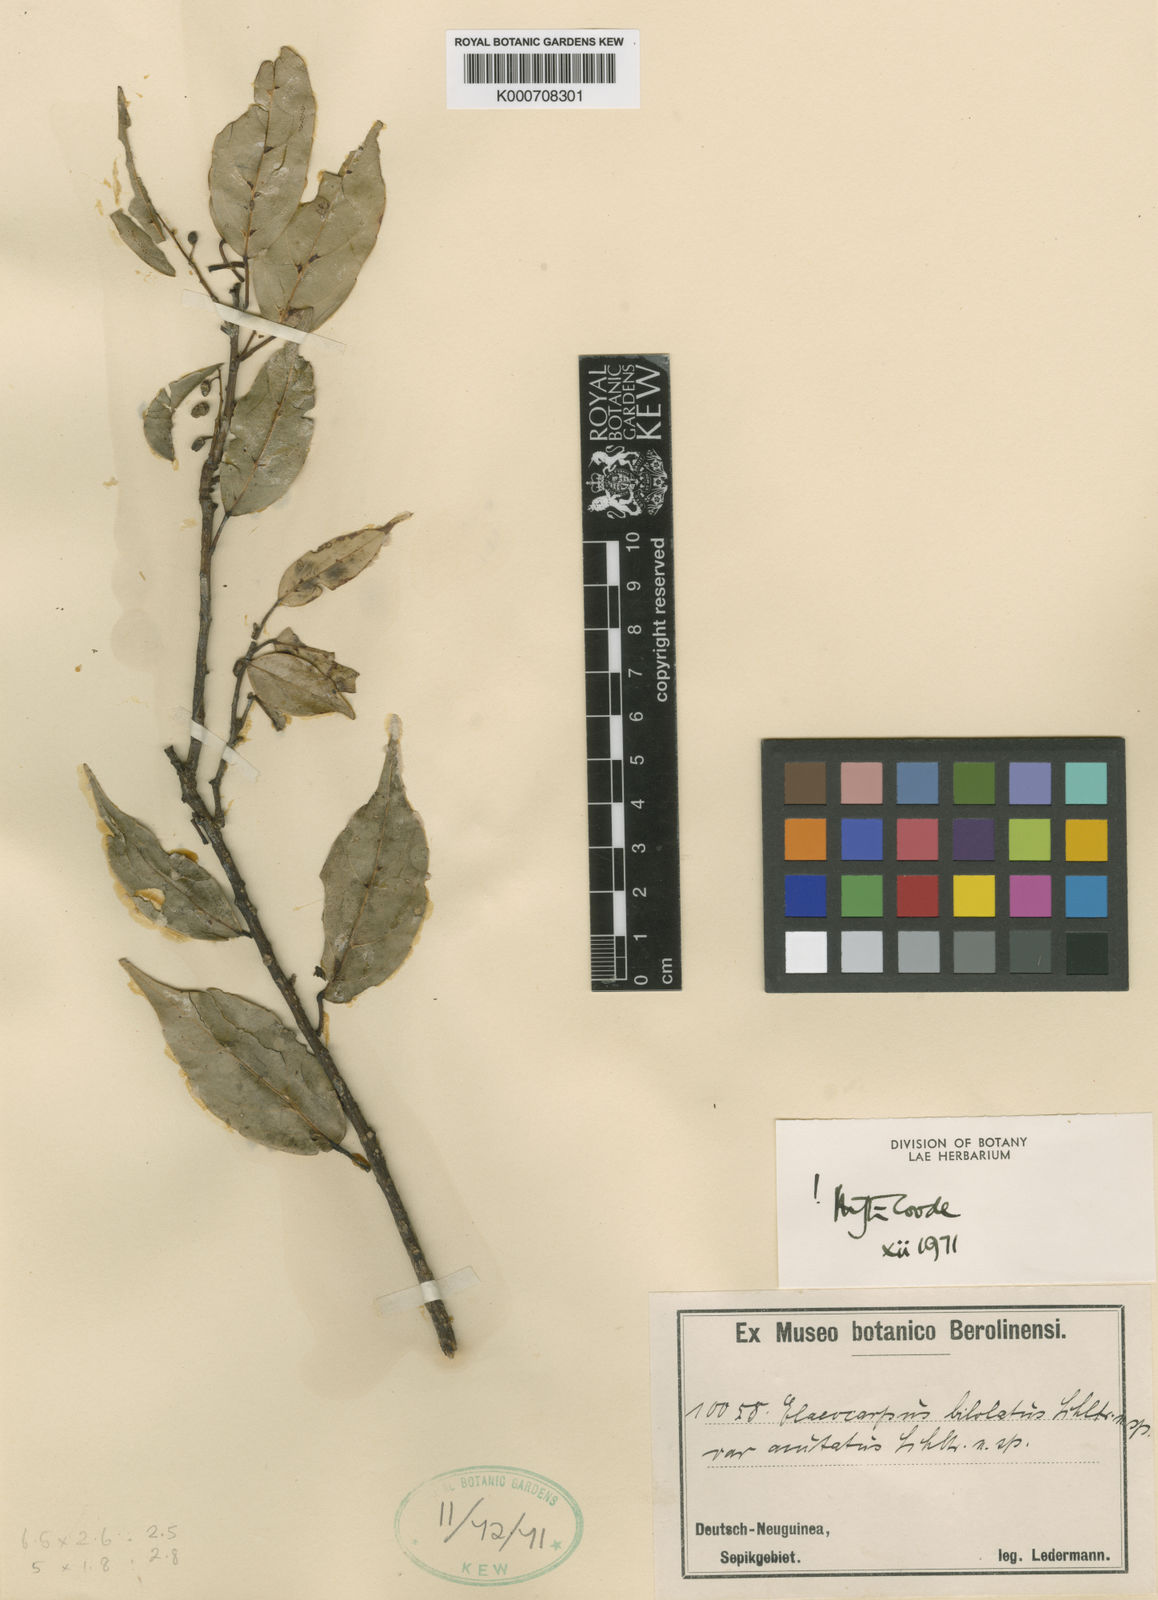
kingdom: Plantae
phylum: Tracheophyta
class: Magnoliopsida
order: Oxalidales
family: Elaeocarpaceae
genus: Elaeocarpus
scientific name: Elaeocarpus bilobatus
